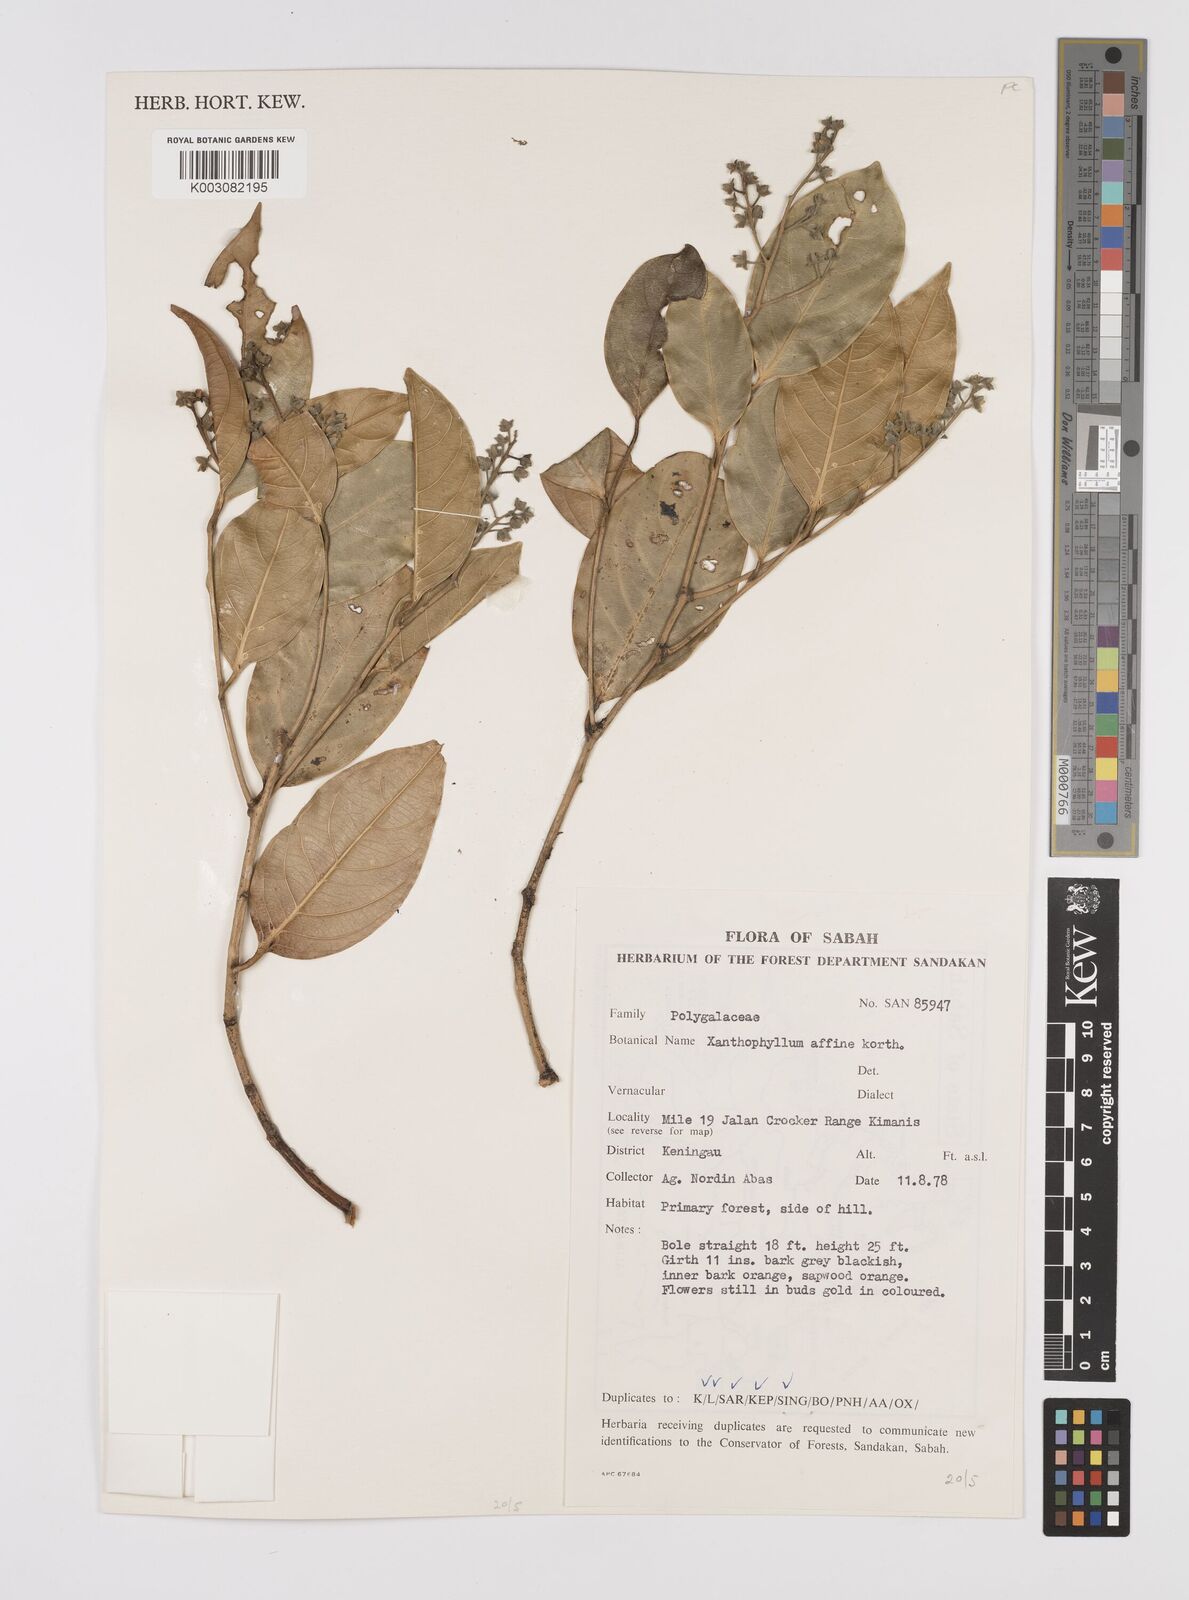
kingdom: Plantae
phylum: Tracheophyta
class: Magnoliopsida
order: Fabales
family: Polygalaceae
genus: Xanthophyllum
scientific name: Xanthophyllum flavescens
